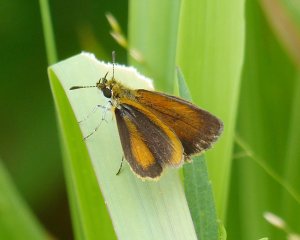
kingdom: Animalia
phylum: Arthropoda
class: Insecta
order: Lepidoptera
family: Hesperiidae
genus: Ancyloxypha
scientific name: Ancyloxypha numitor
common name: Least Skipper
